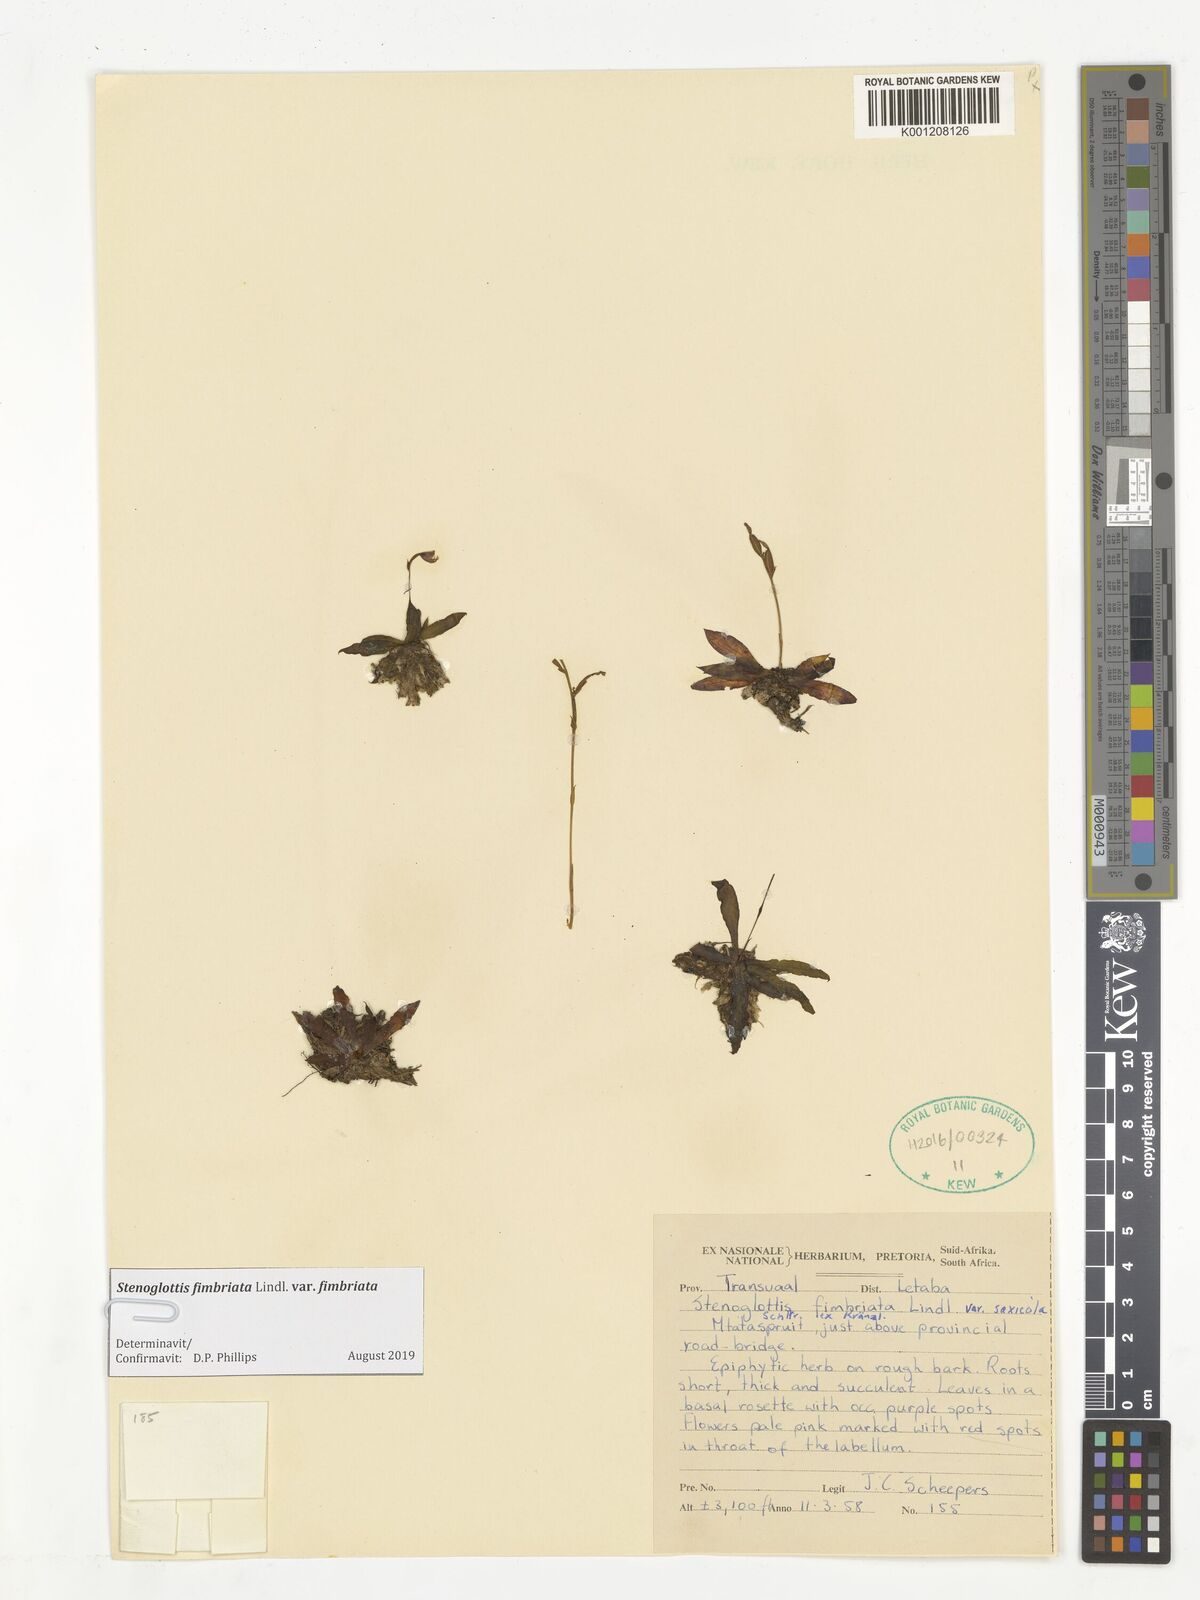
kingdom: Plantae
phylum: Tracheophyta
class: Liliopsida
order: Asparagales
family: Orchidaceae
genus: Stenoglottis
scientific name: Stenoglottis fimbriata
